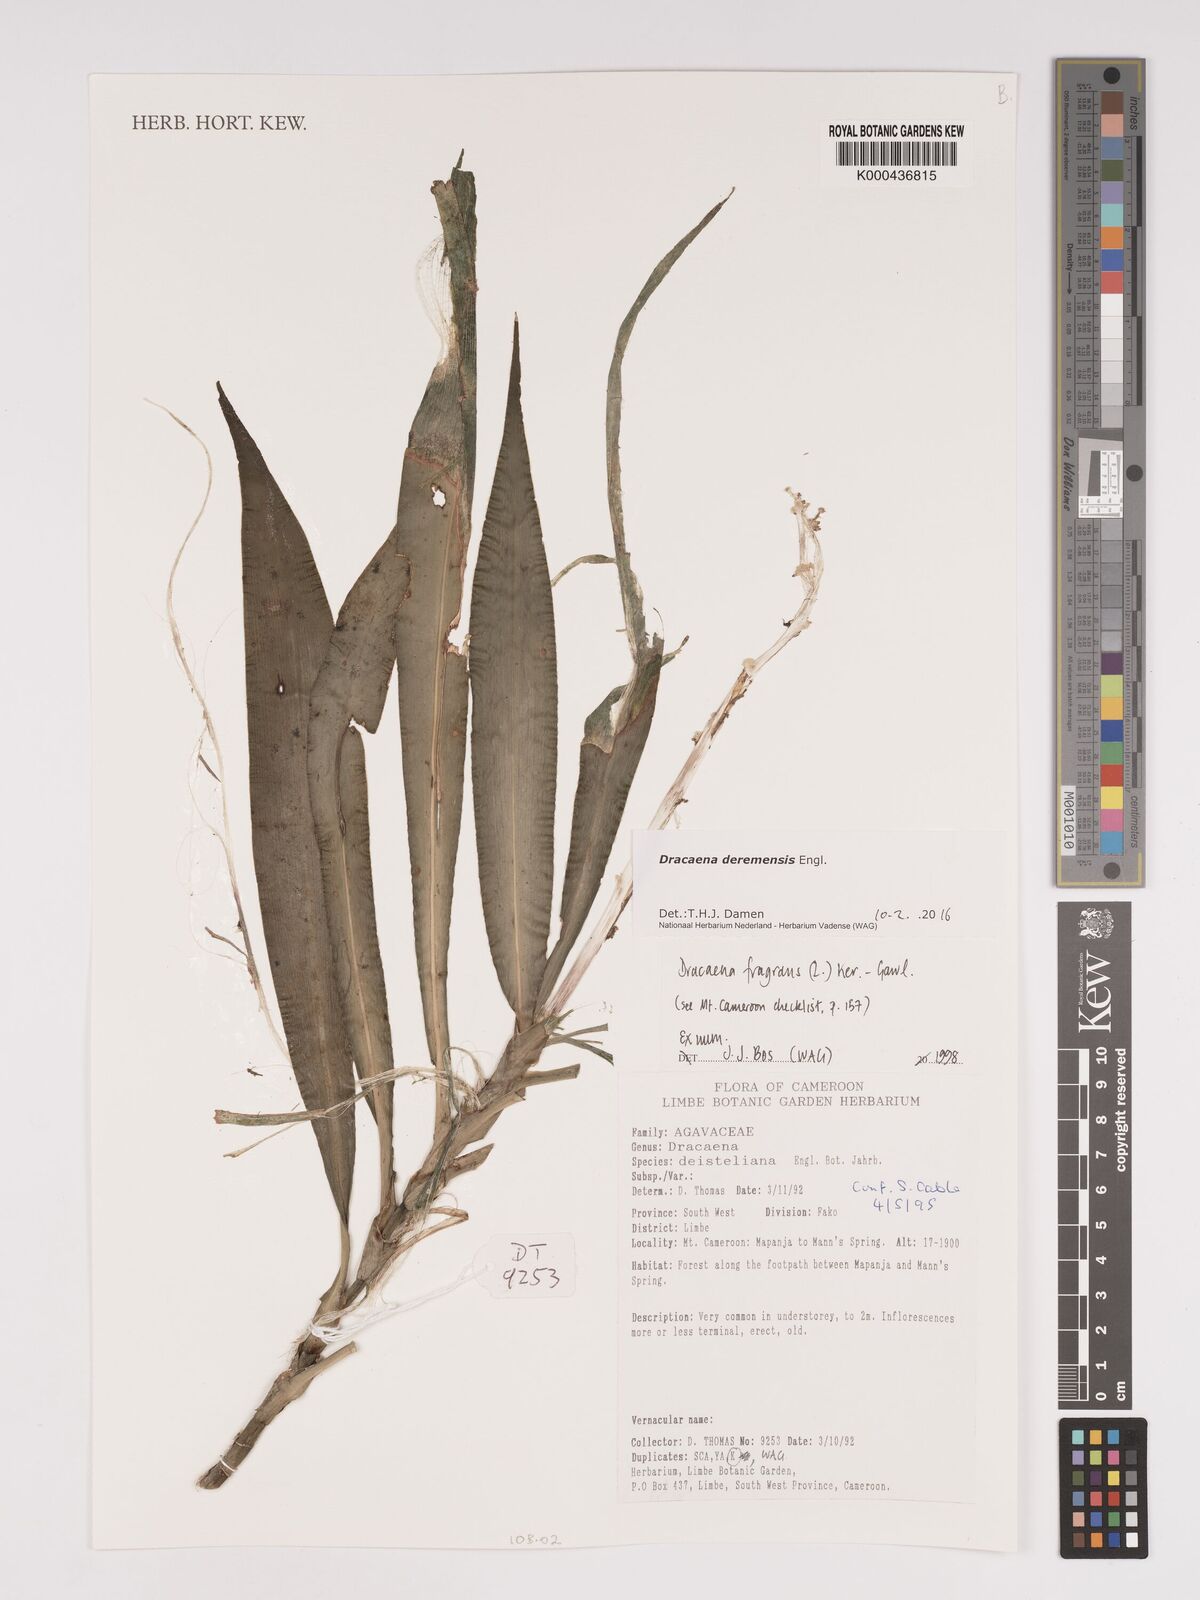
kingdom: Plantae
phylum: Tracheophyta
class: Liliopsida
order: Asparagales
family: Asparagaceae
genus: Dracaena
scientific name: Dracaena fragrans
